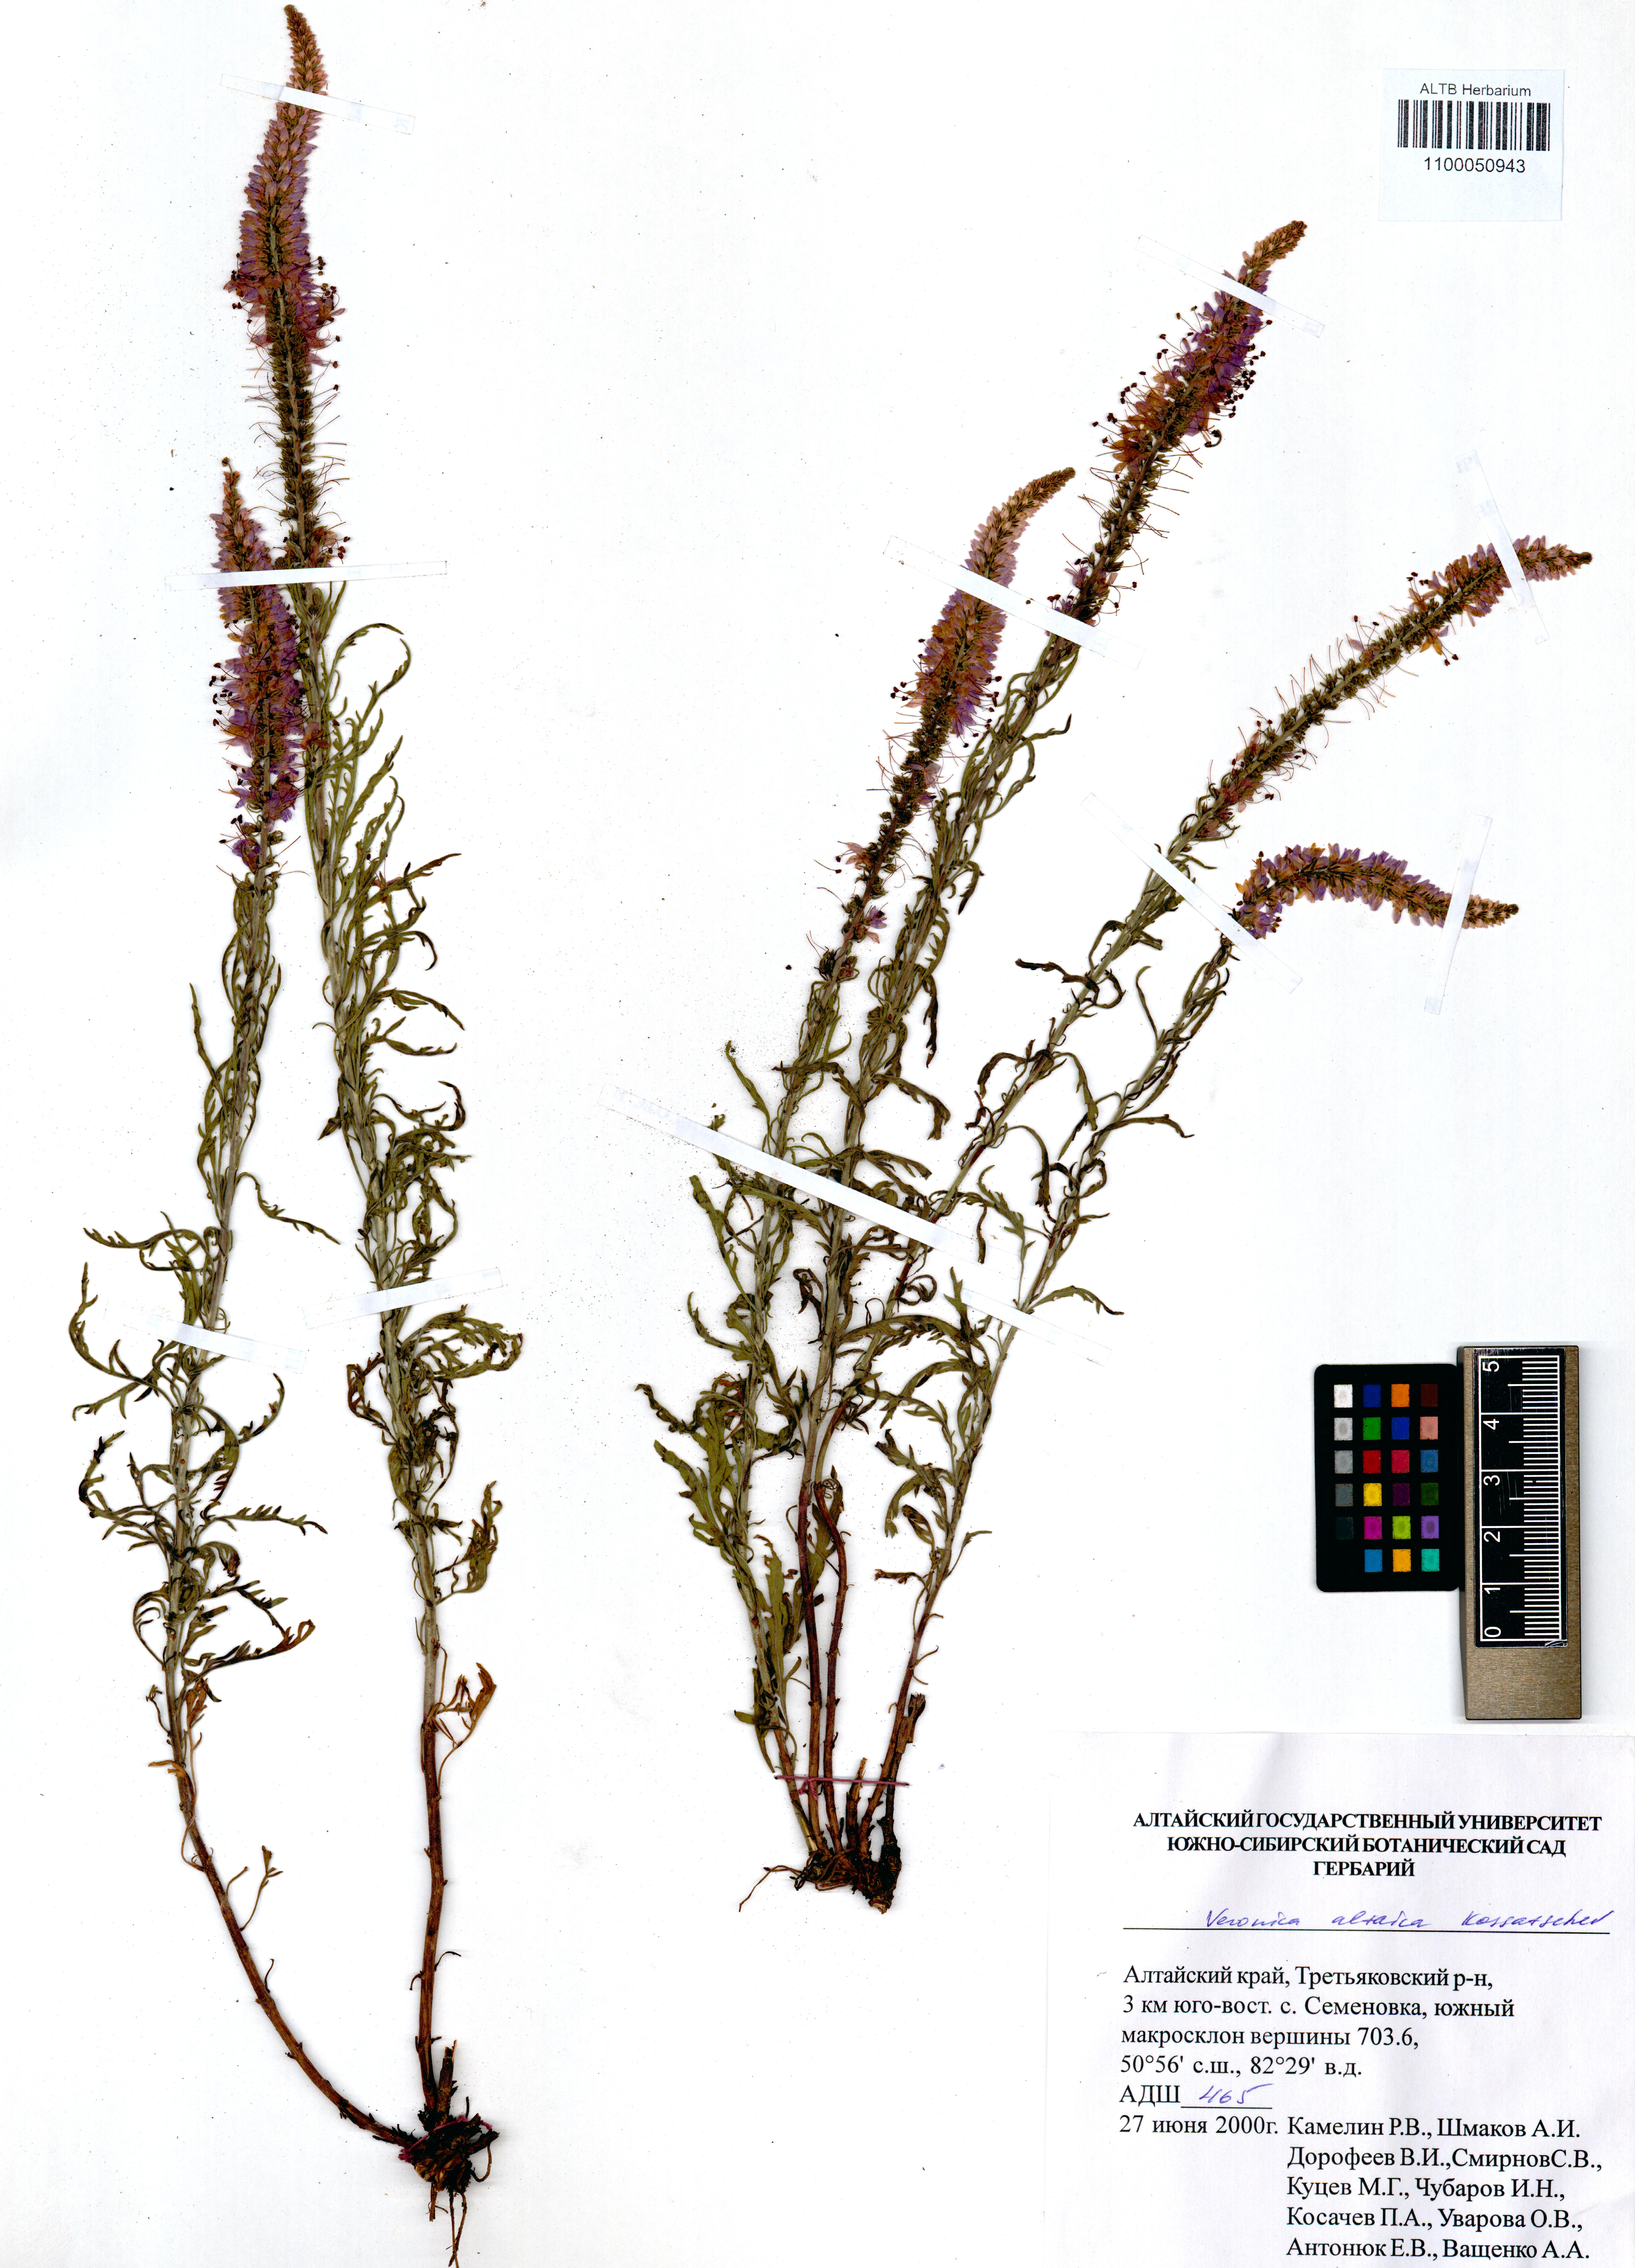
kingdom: Plantae
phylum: Tracheophyta
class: Magnoliopsida
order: Lamiales
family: Plantaginaceae
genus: Veronica
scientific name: Veronica altaica
